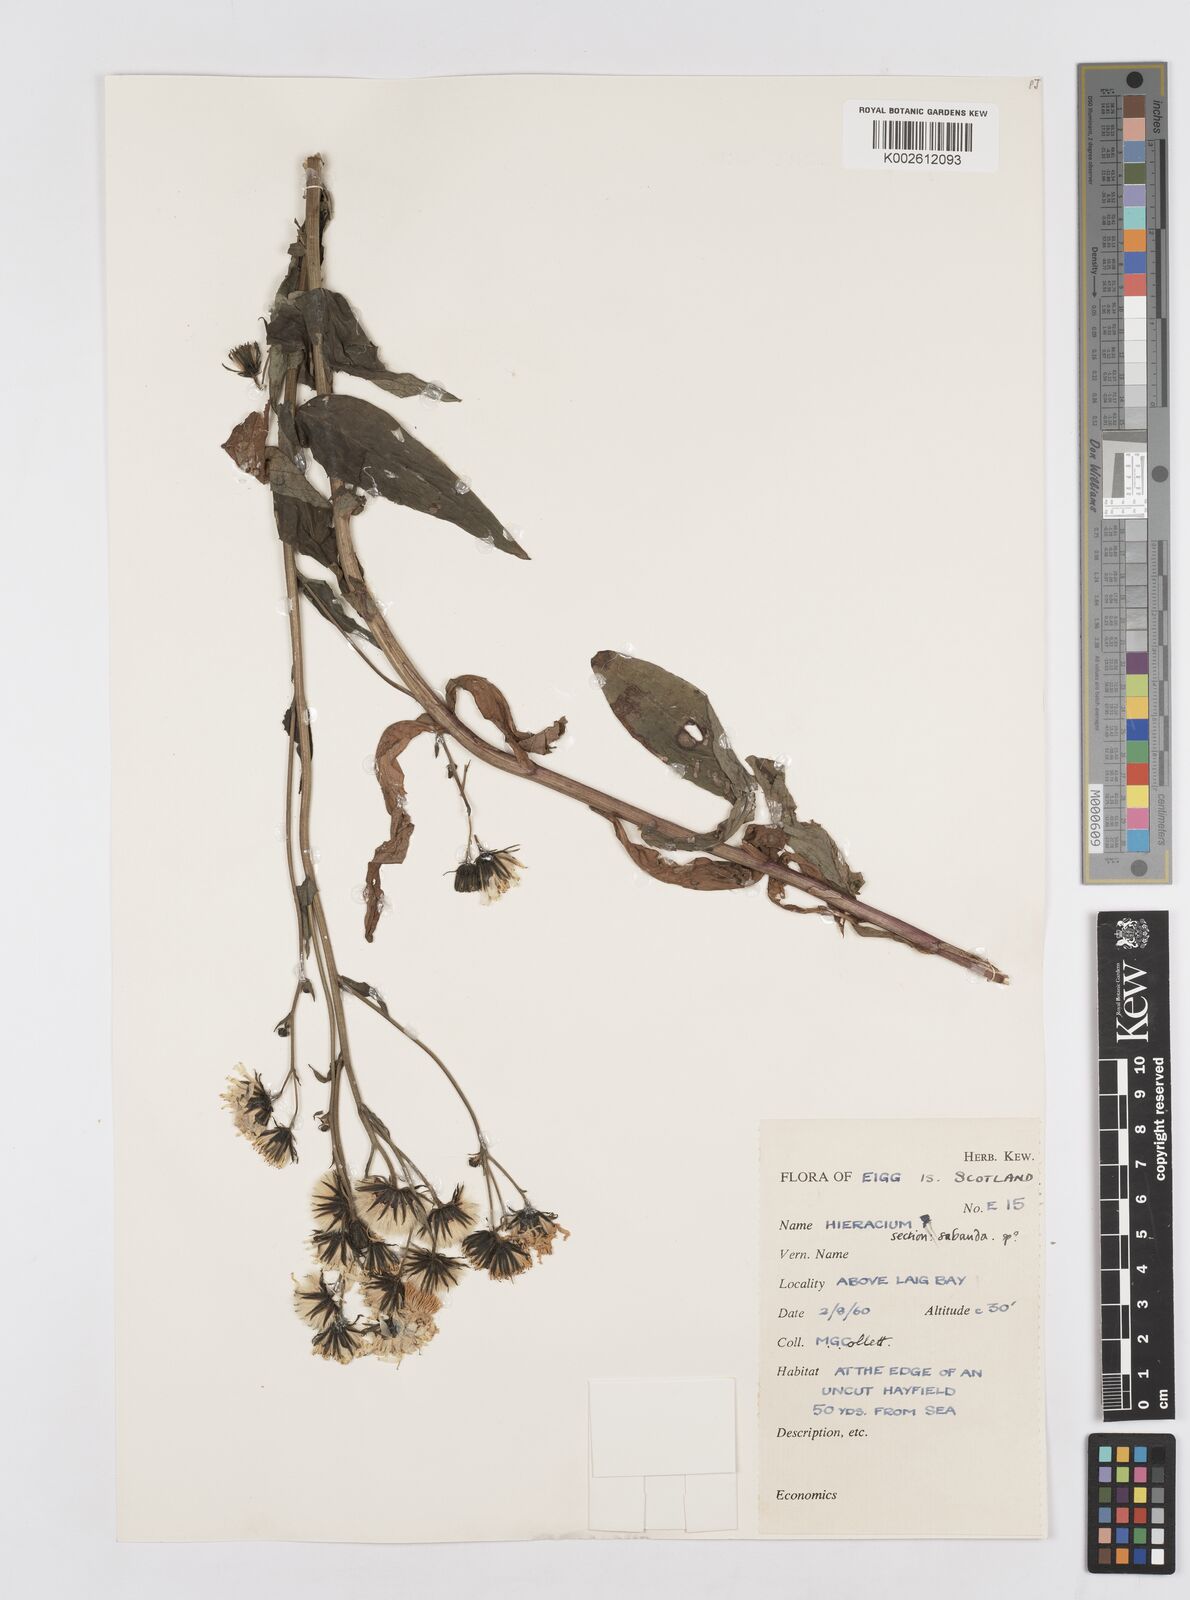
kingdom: Plantae
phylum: Tracheophyta
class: Magnoliopsida
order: Asterales
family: Asteraceae
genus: Hieracium
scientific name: Hieracium
